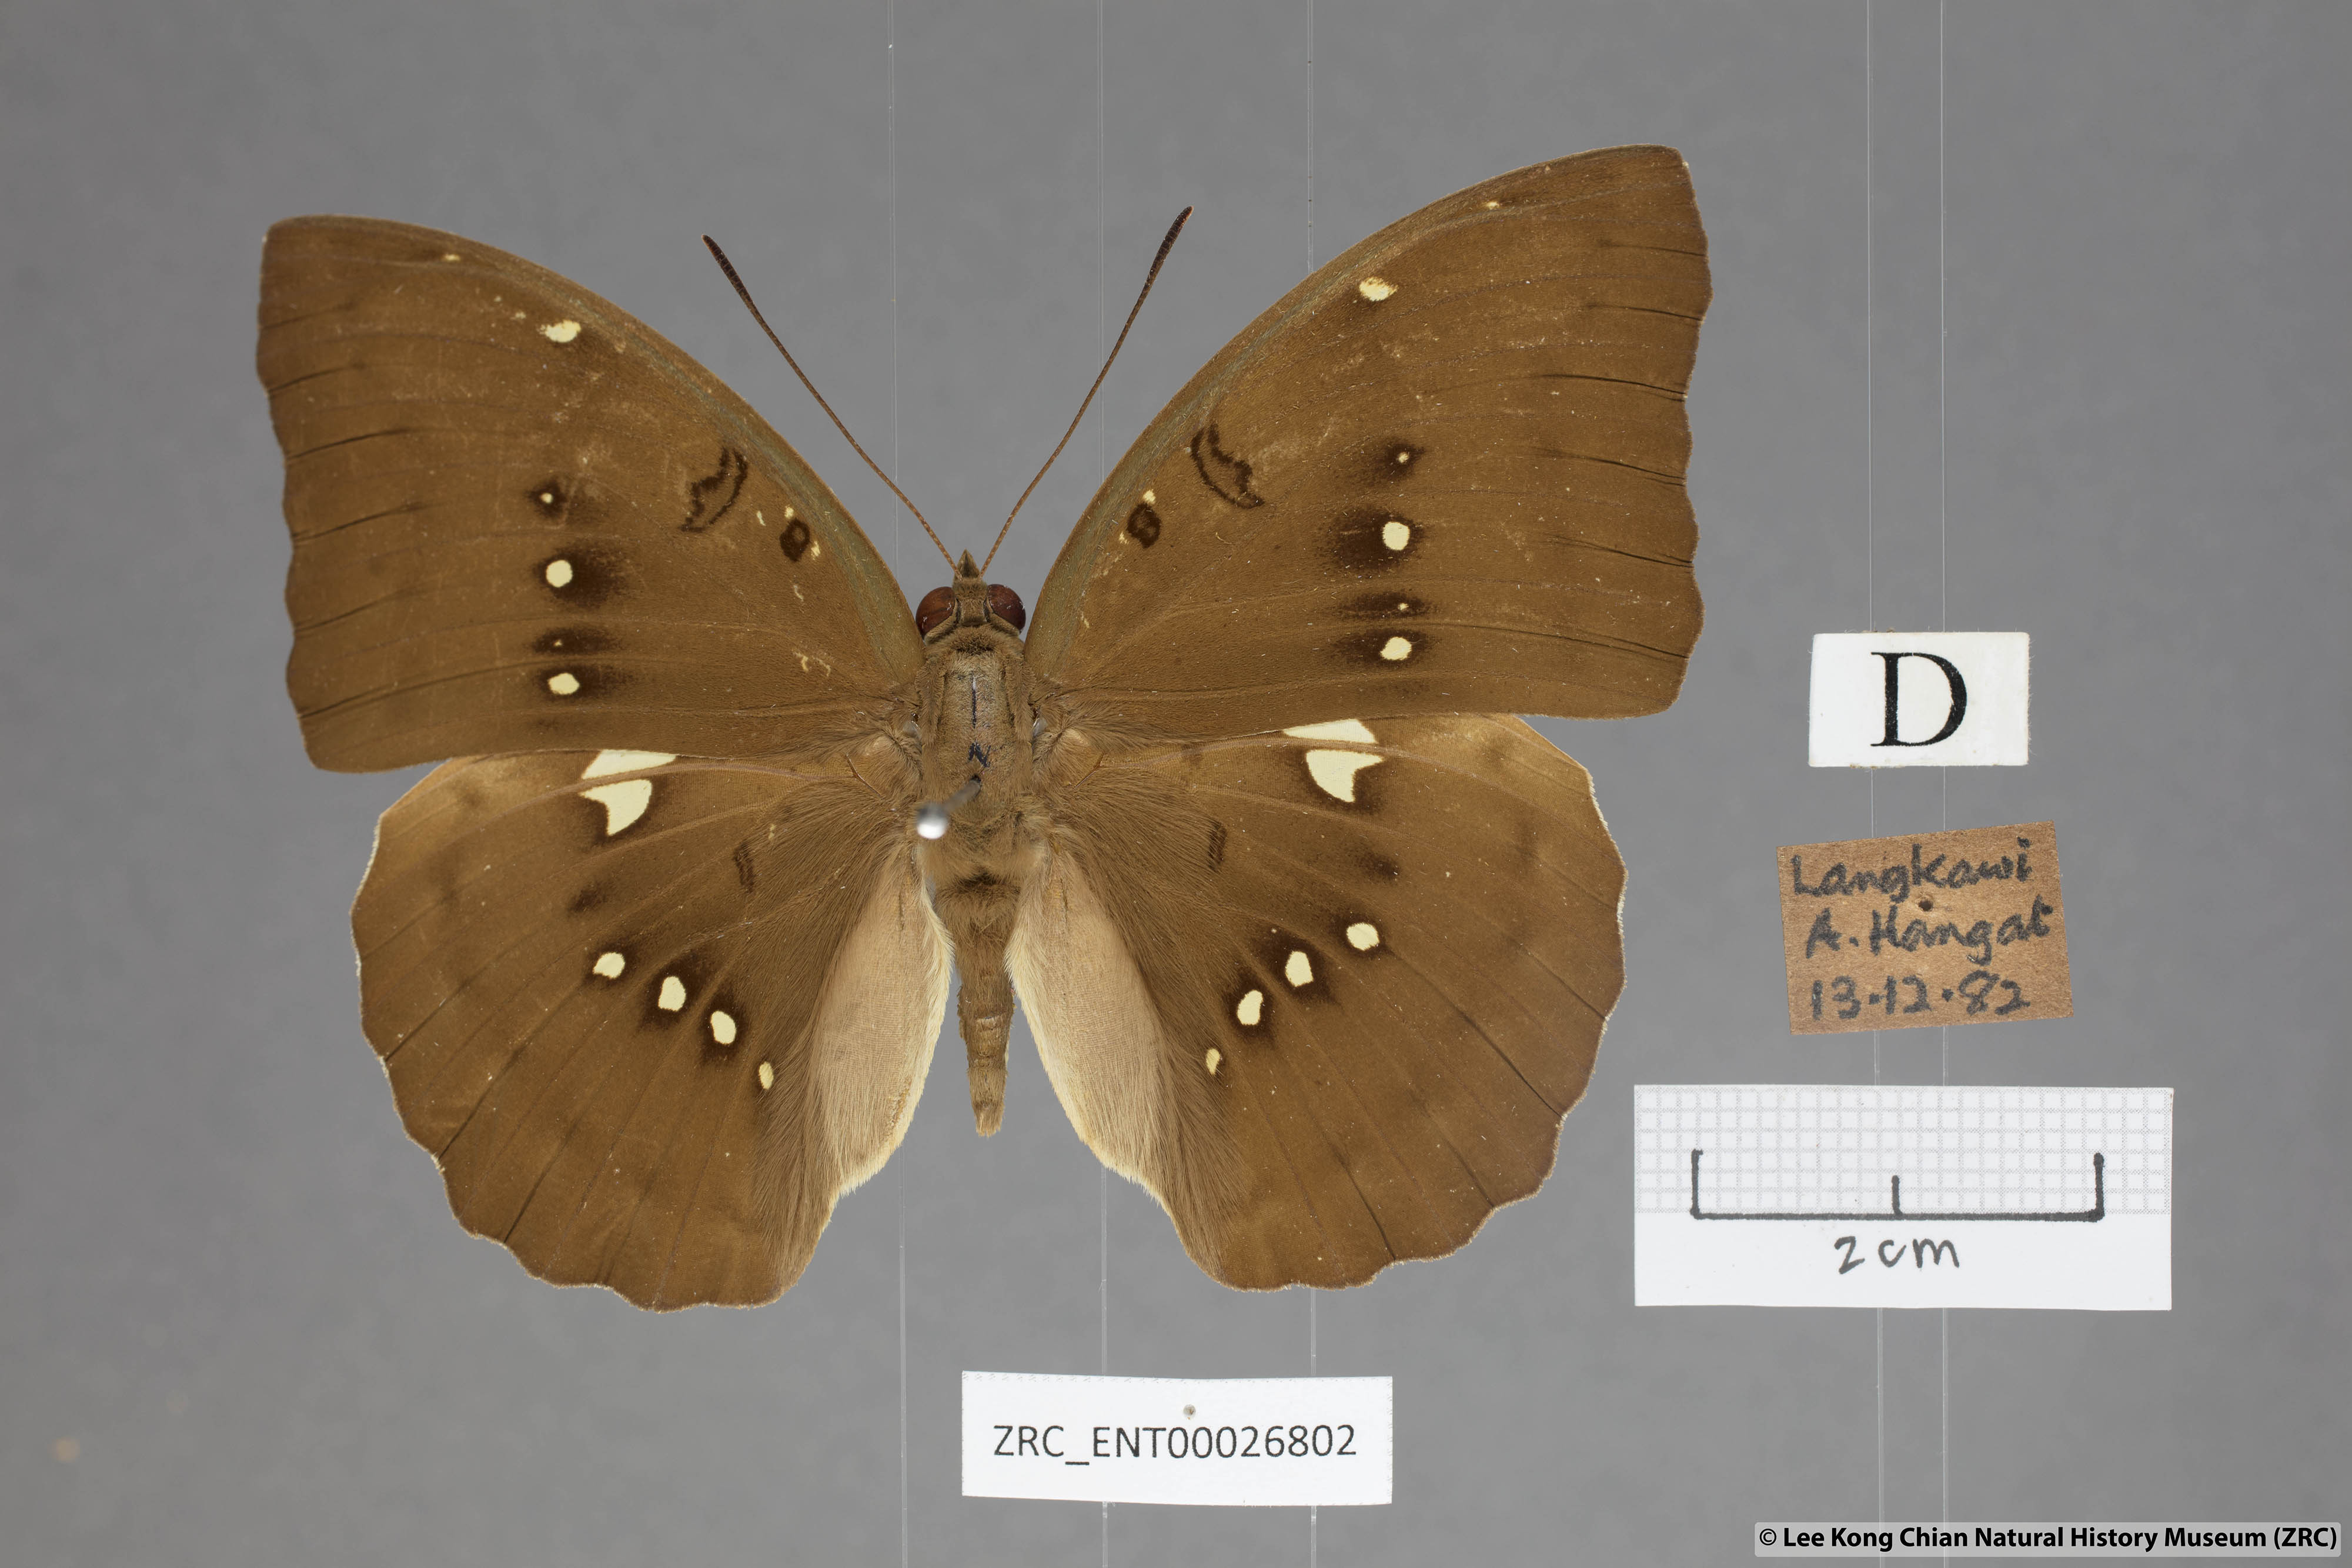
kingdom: Animalia
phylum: Arthropoda
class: Insecta
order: Lepidoptera
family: Nymphalidae
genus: Euthalia
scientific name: Euthalia Bassarona dunya
